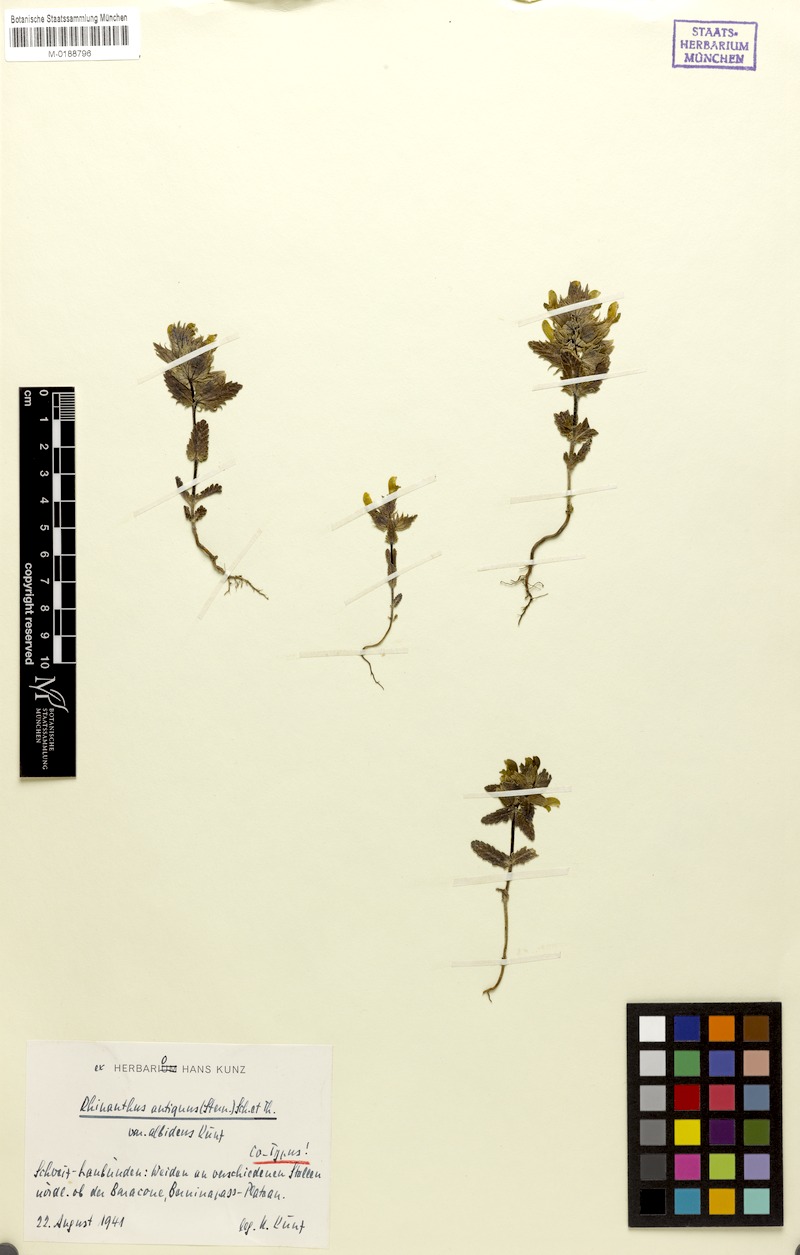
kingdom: Plantae
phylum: Tracheophyta
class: Magnoliopsida
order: Lamiales
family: Orobanchaceae
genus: Rhinanthus
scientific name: Rhinanthus antiquus
